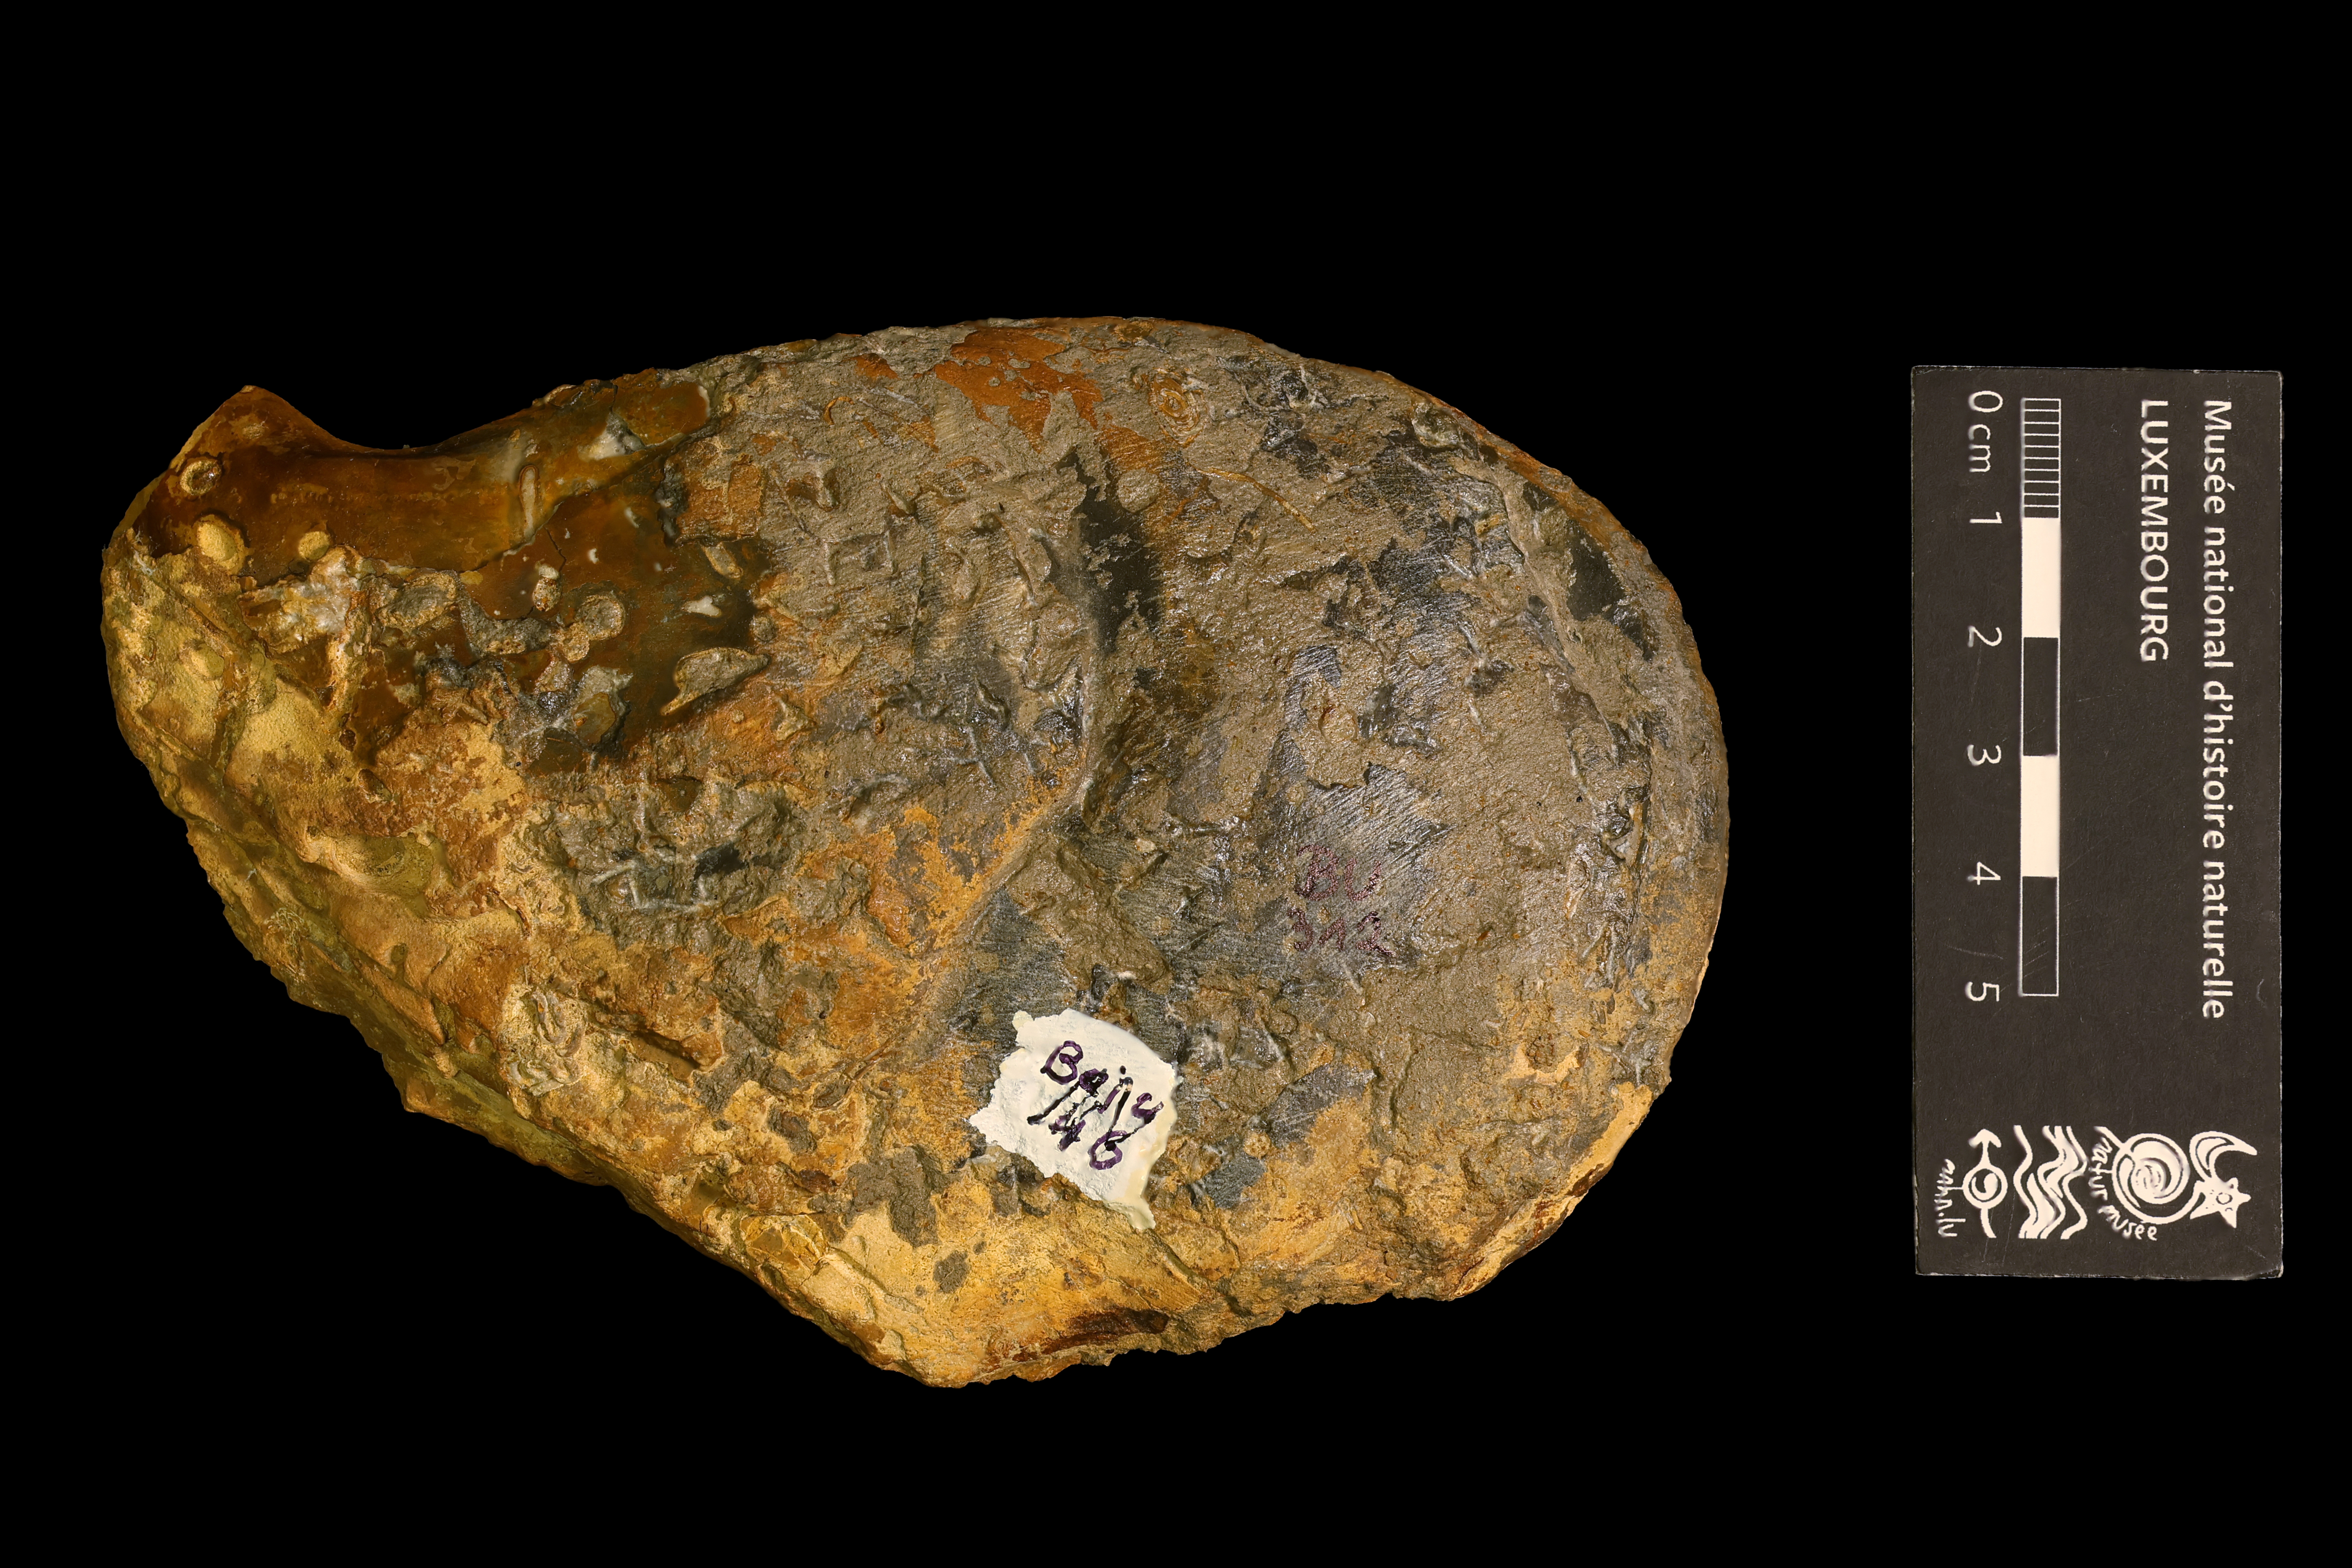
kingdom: Animalia
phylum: Mollusca
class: Bivalvia
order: Ostreida
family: Isognomonidae
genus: Isognomon
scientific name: Isognomon Ostracites isognomoides
